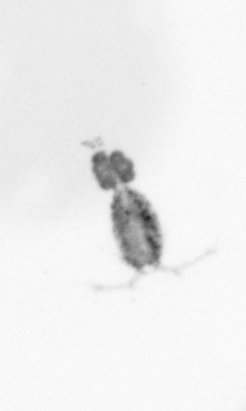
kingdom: Animalia
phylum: Arthropoda
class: Copepoda
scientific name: Copepoda
